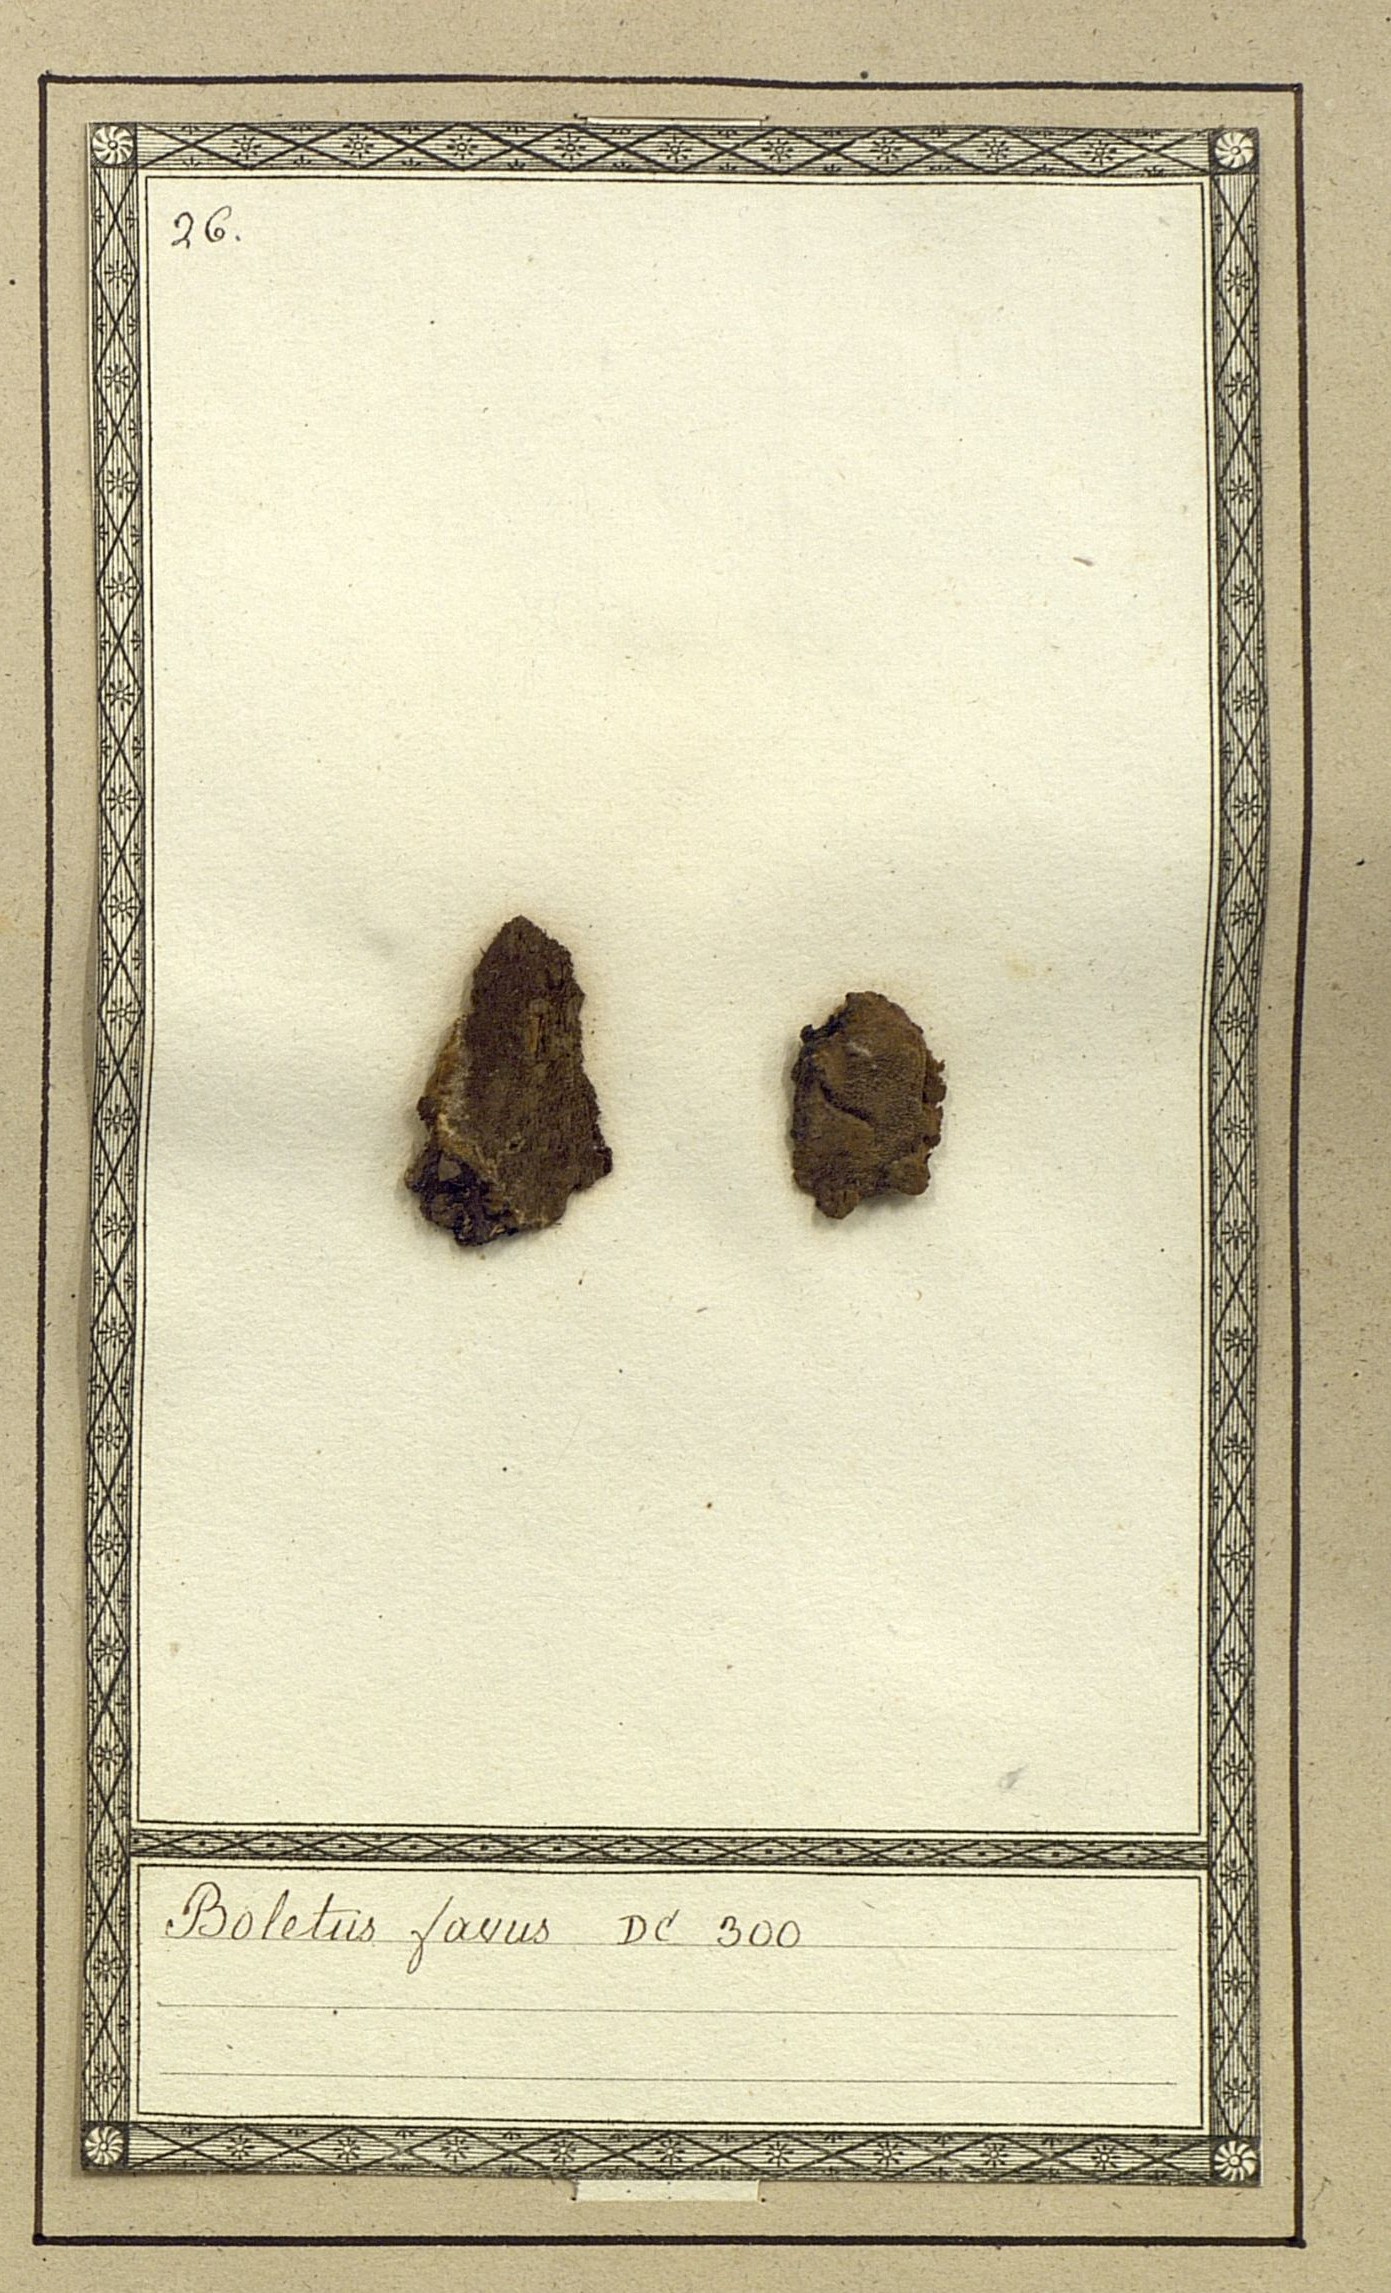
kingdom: Fungi
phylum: Basidiomycota
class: Agaricomycetes
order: Boletales
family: Boletaceae
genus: Boletellus
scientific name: Boletellus corneri
